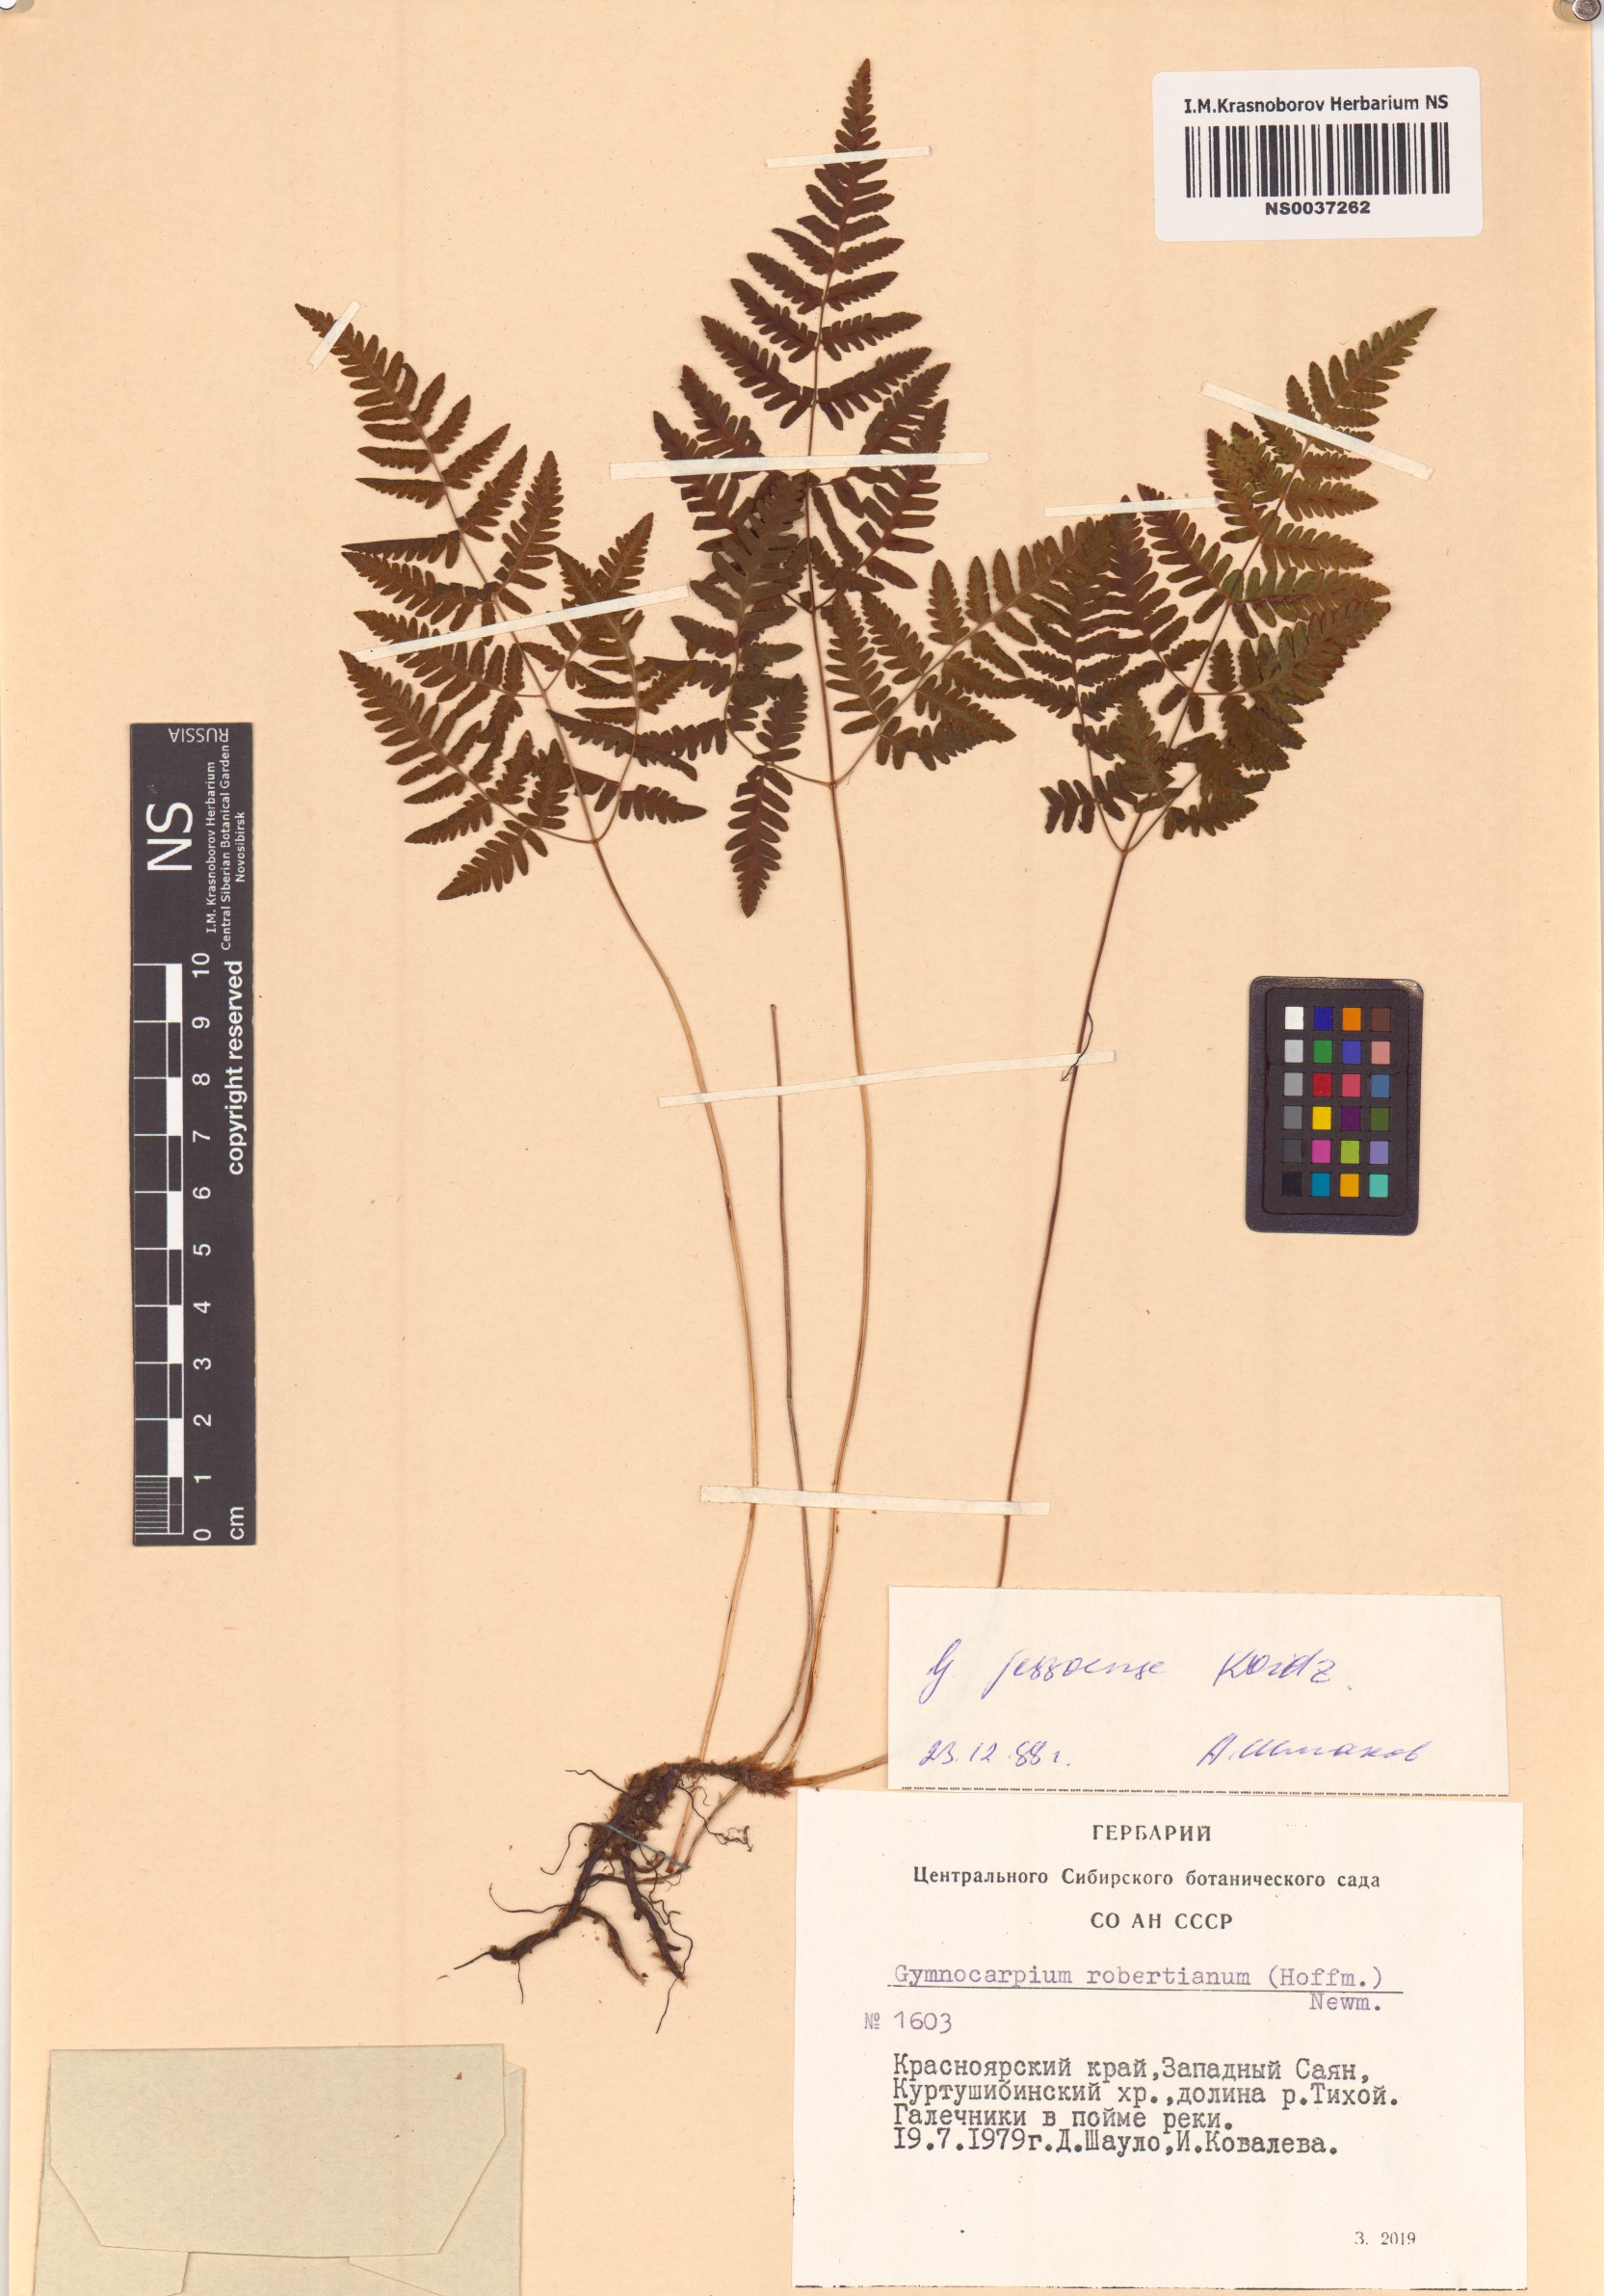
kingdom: Plantae
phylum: Tracheophyta
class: Polypodiopsida
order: Polypodiales
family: Cystopteridaceae
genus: Gymnocarpium
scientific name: Gymnocarpium jessoense
